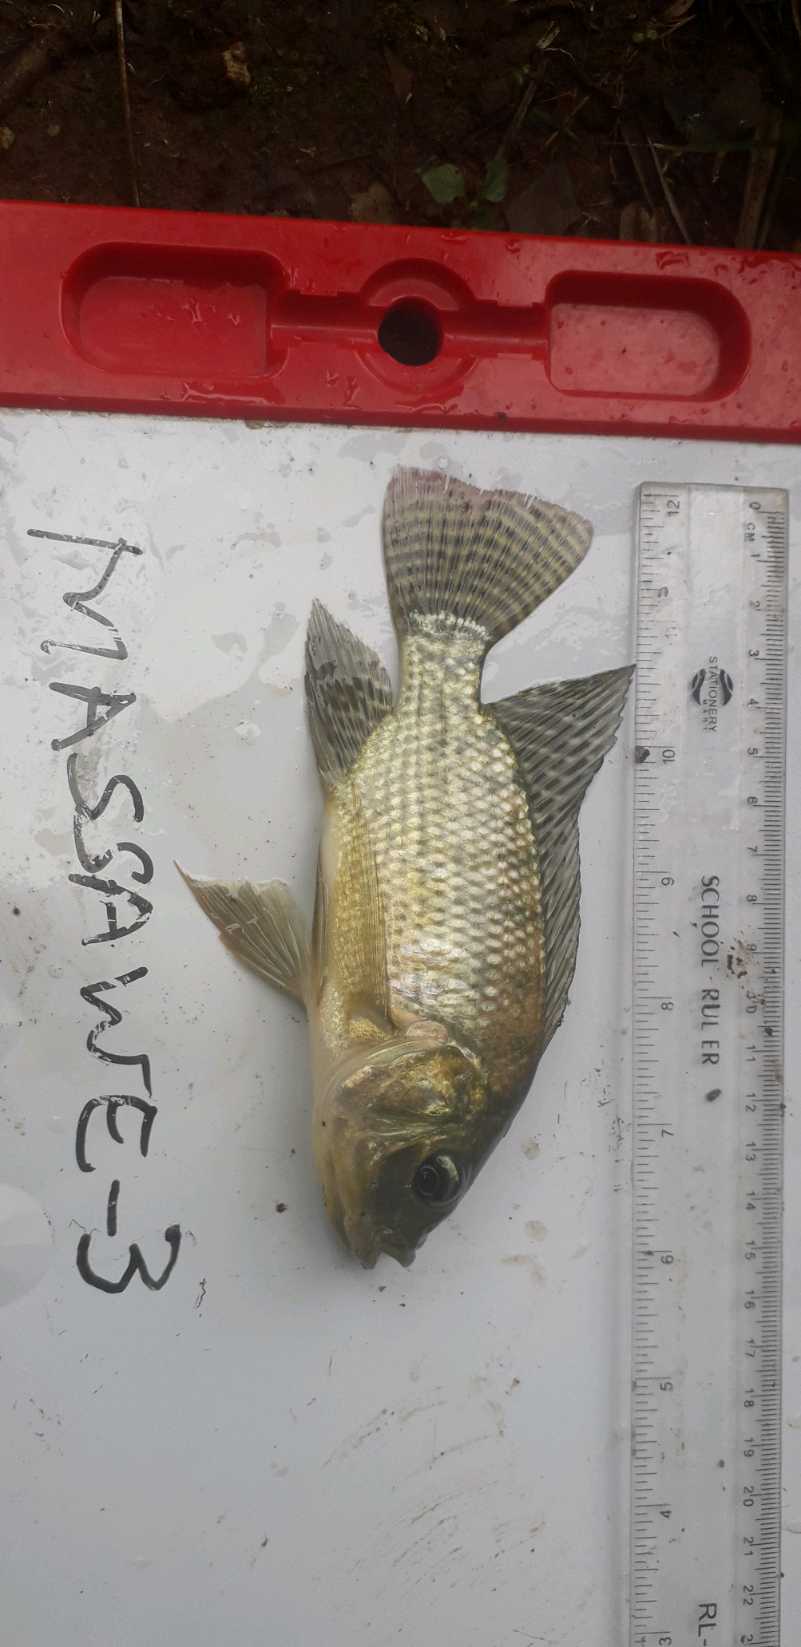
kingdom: Animalia
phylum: Chordata
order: Perciformes
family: Cichlidae
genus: Oreochromis
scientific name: Oreochromis niloticus
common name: Nile tilapia
